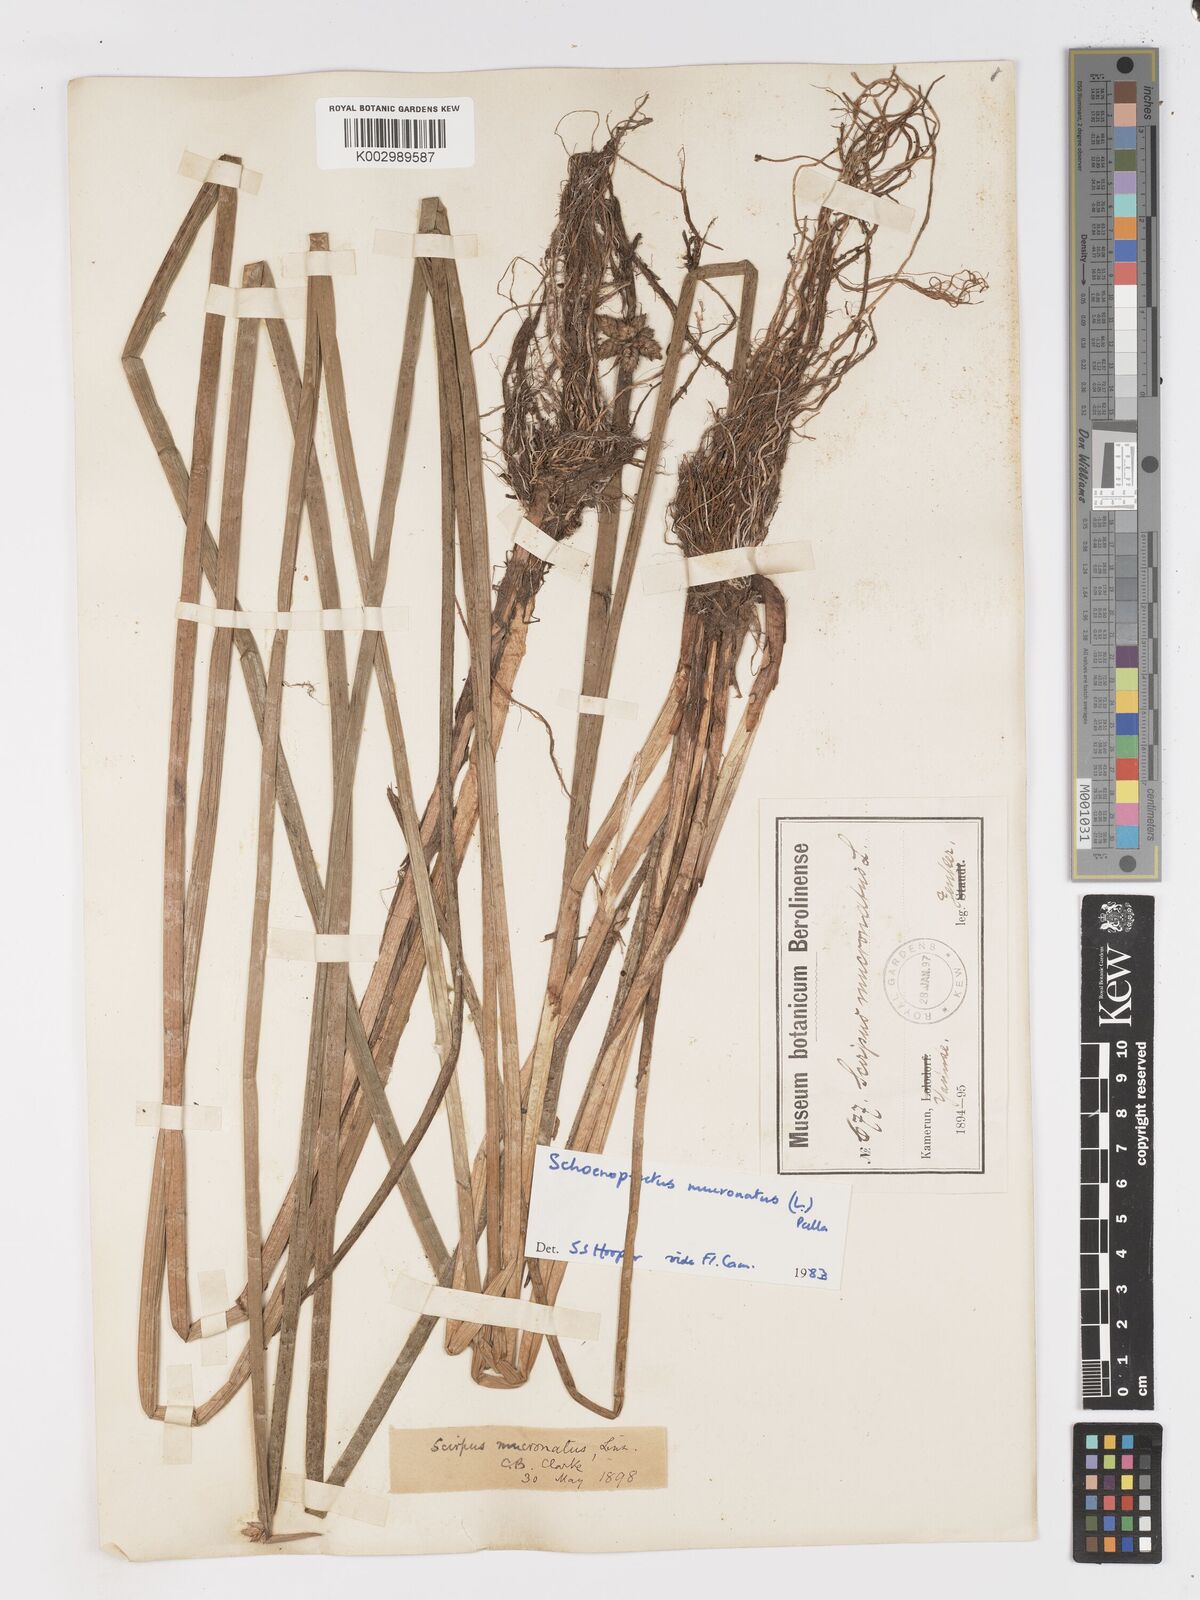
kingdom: Plantae
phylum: Tracheophyta
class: Liliopsida
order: Poales
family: Cyperaceae
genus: Schoenoplectiella
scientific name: Schoenoplectiella mucronata
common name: Bog bulrush
